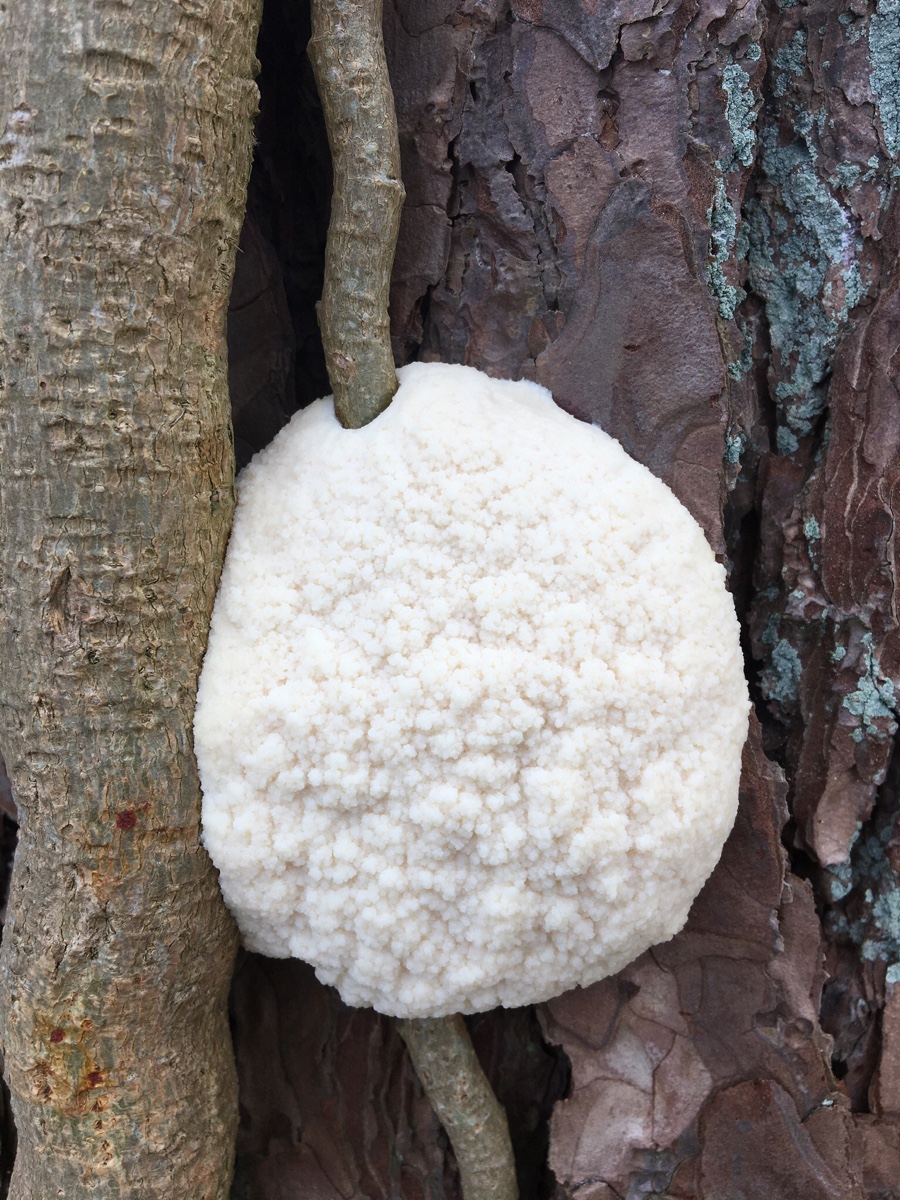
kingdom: Protozoa
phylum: Mycetozoa
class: Myxomycetes
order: Cribrariales
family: Tubiferaceae
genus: Reticularia
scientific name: Reticularia lycoperdon
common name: skinnende støvpude
